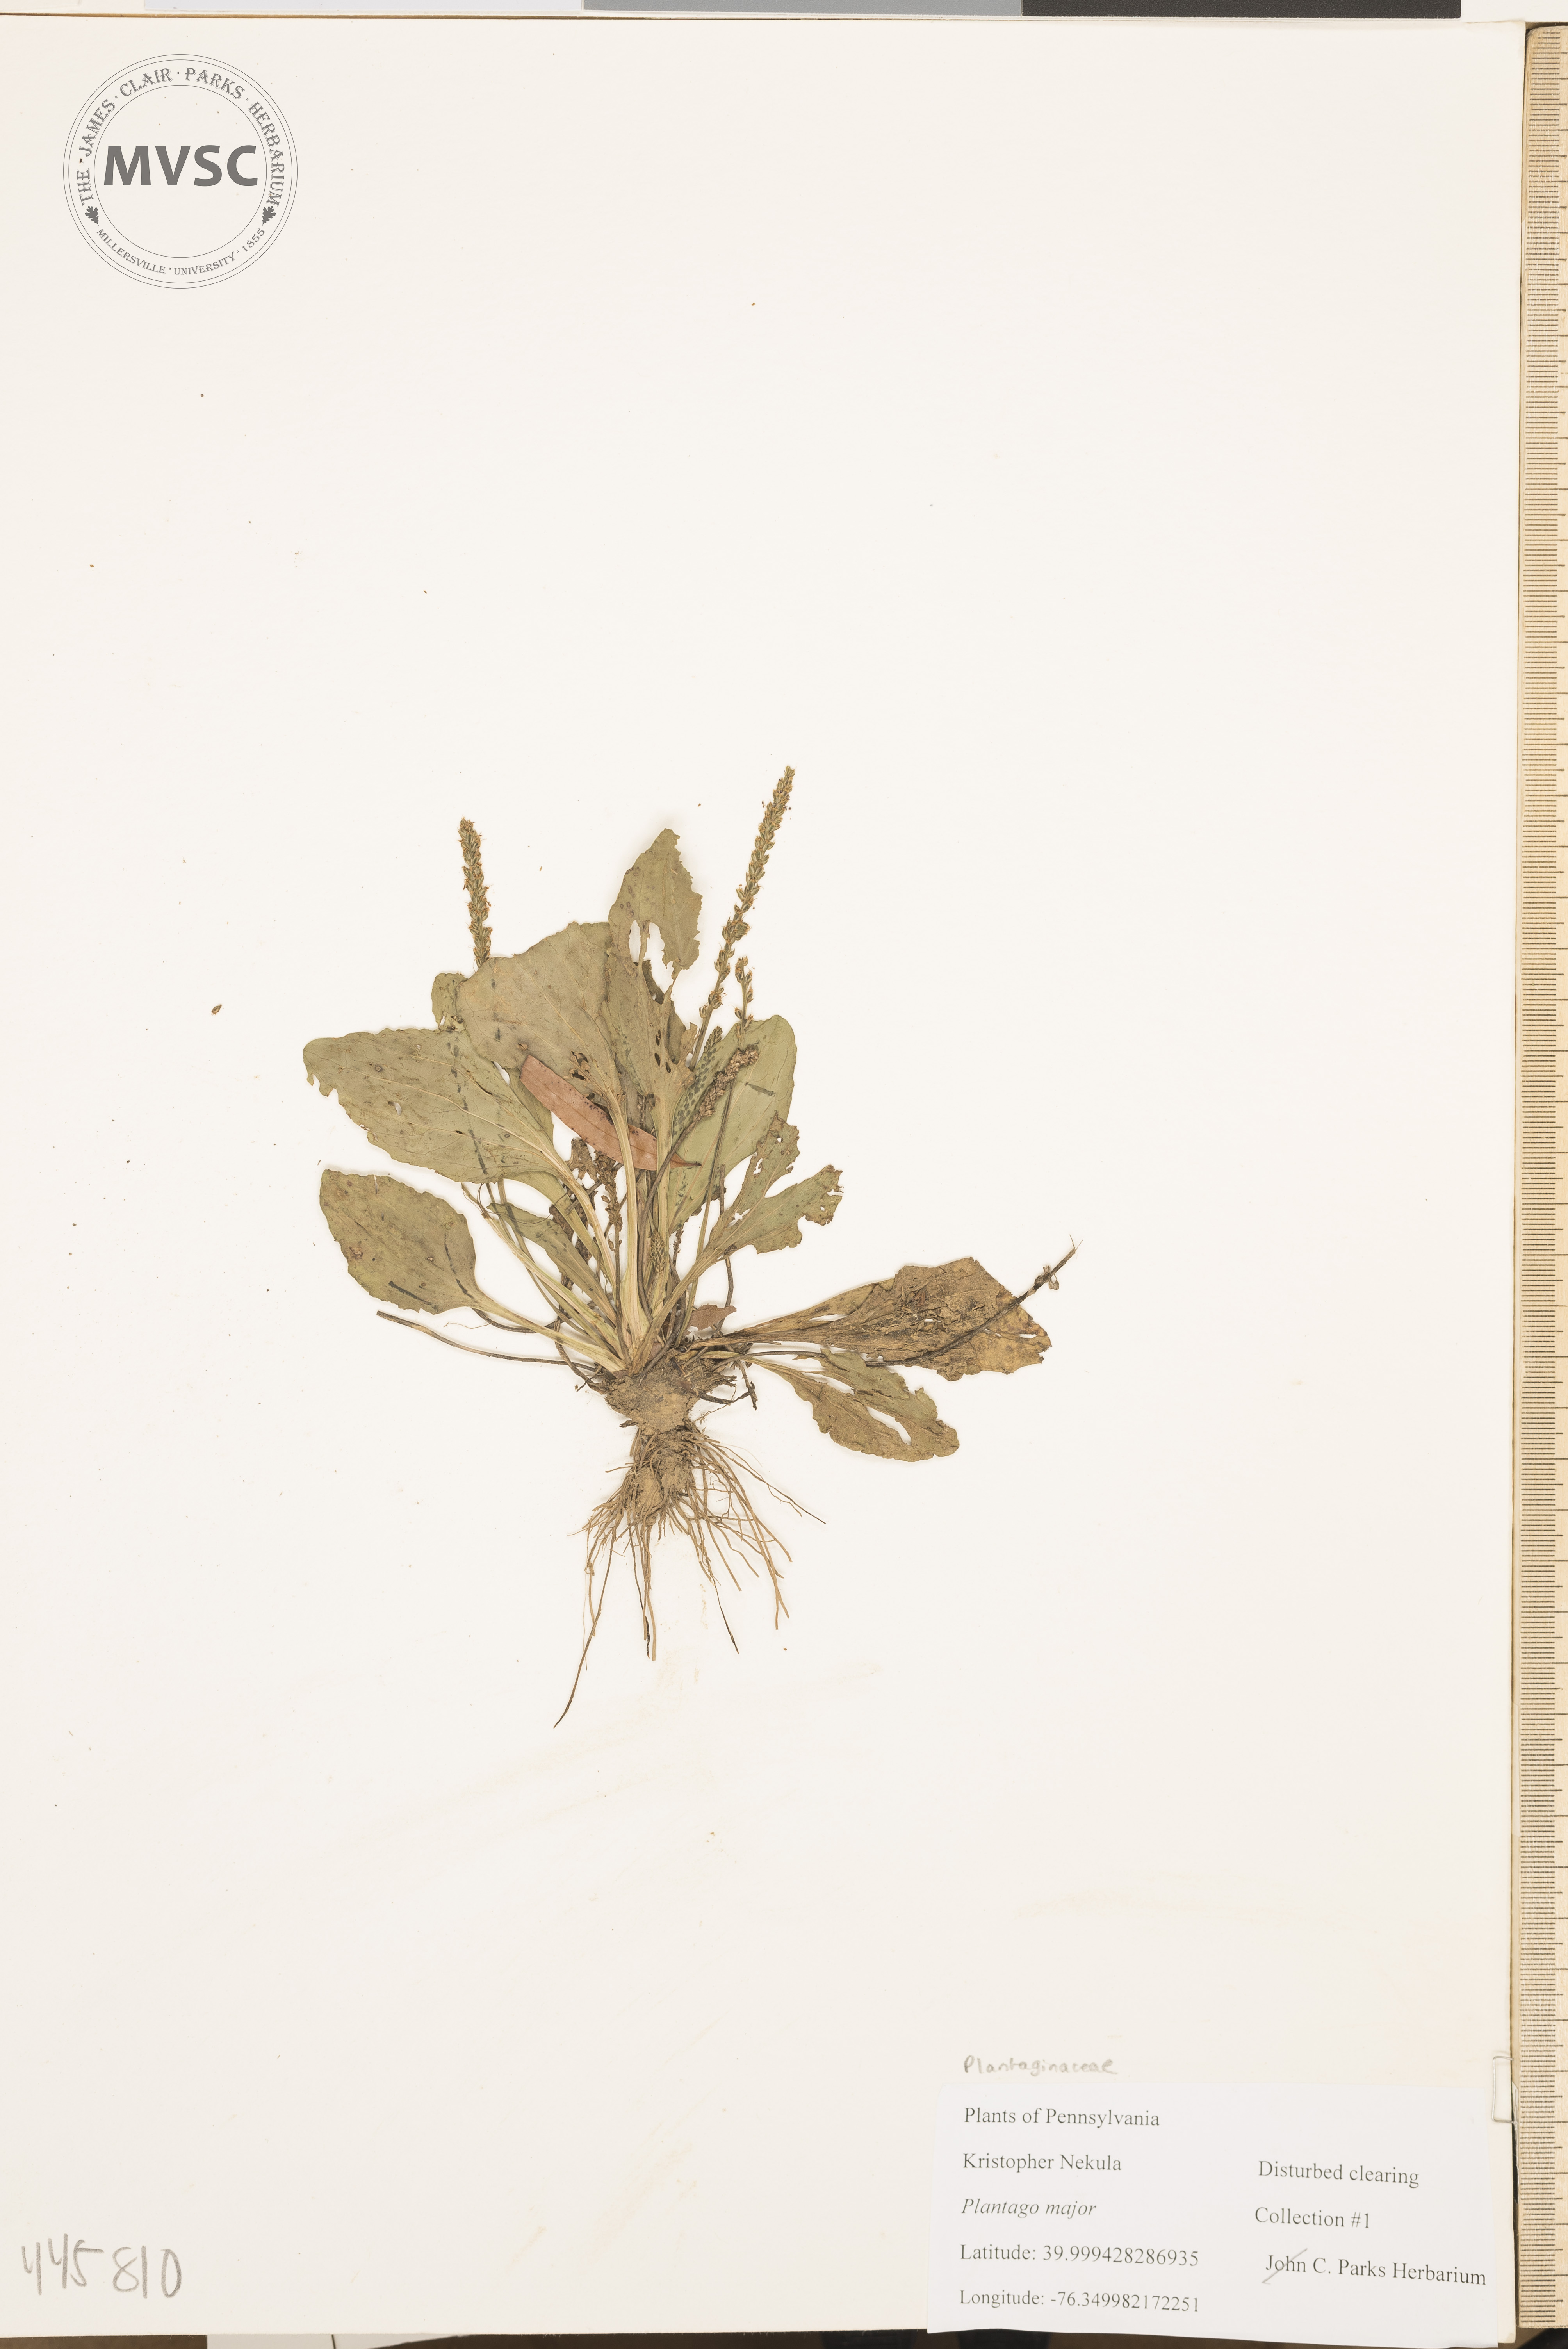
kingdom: Plantae
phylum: Tracheophyta
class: Magnoliopsida
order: Lamiales
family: Plantaginaceae
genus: Plantago
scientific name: Plantago major
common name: Common plantain
